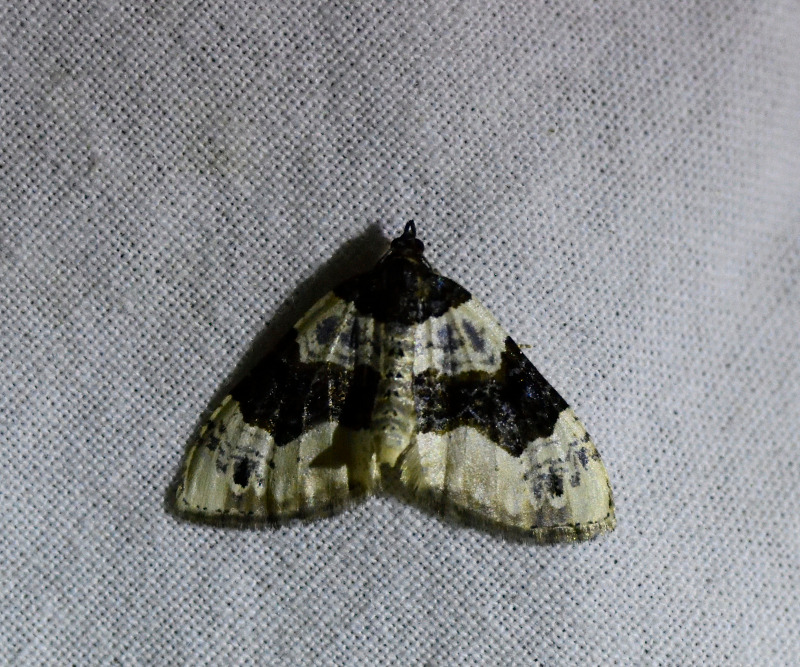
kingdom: Animalia
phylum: Arthropoda
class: Insecta
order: Lepidoptera
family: Geometridae
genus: Cosmorhoe
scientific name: Cosmorhoe ocellata
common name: Snerre-bladmåler
